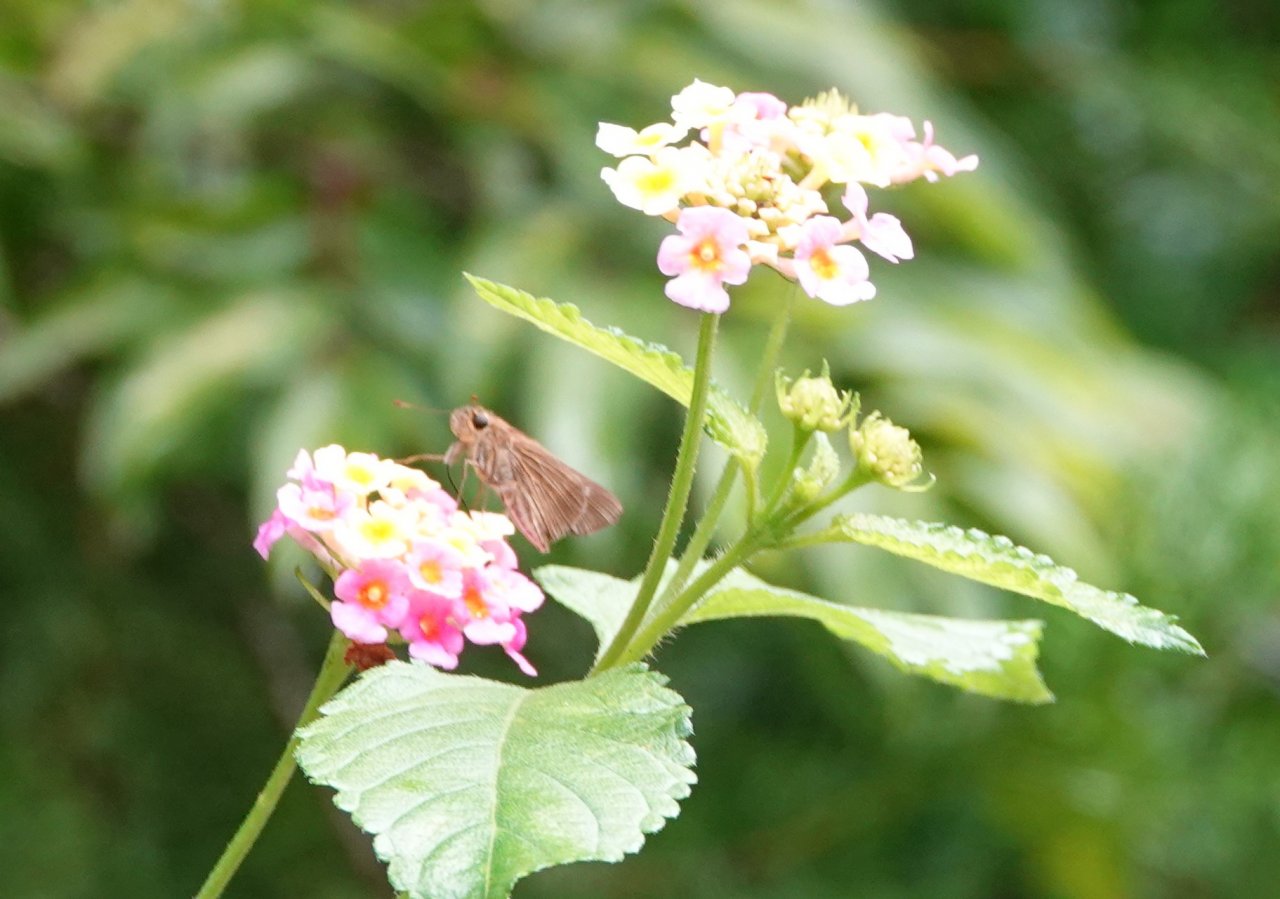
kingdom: Animalia
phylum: Arthropoda
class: Insecta
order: Lepidoptera
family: Hesperiidae
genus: Panoquina
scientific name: Panoquina ocola
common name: Ocola Skipper
